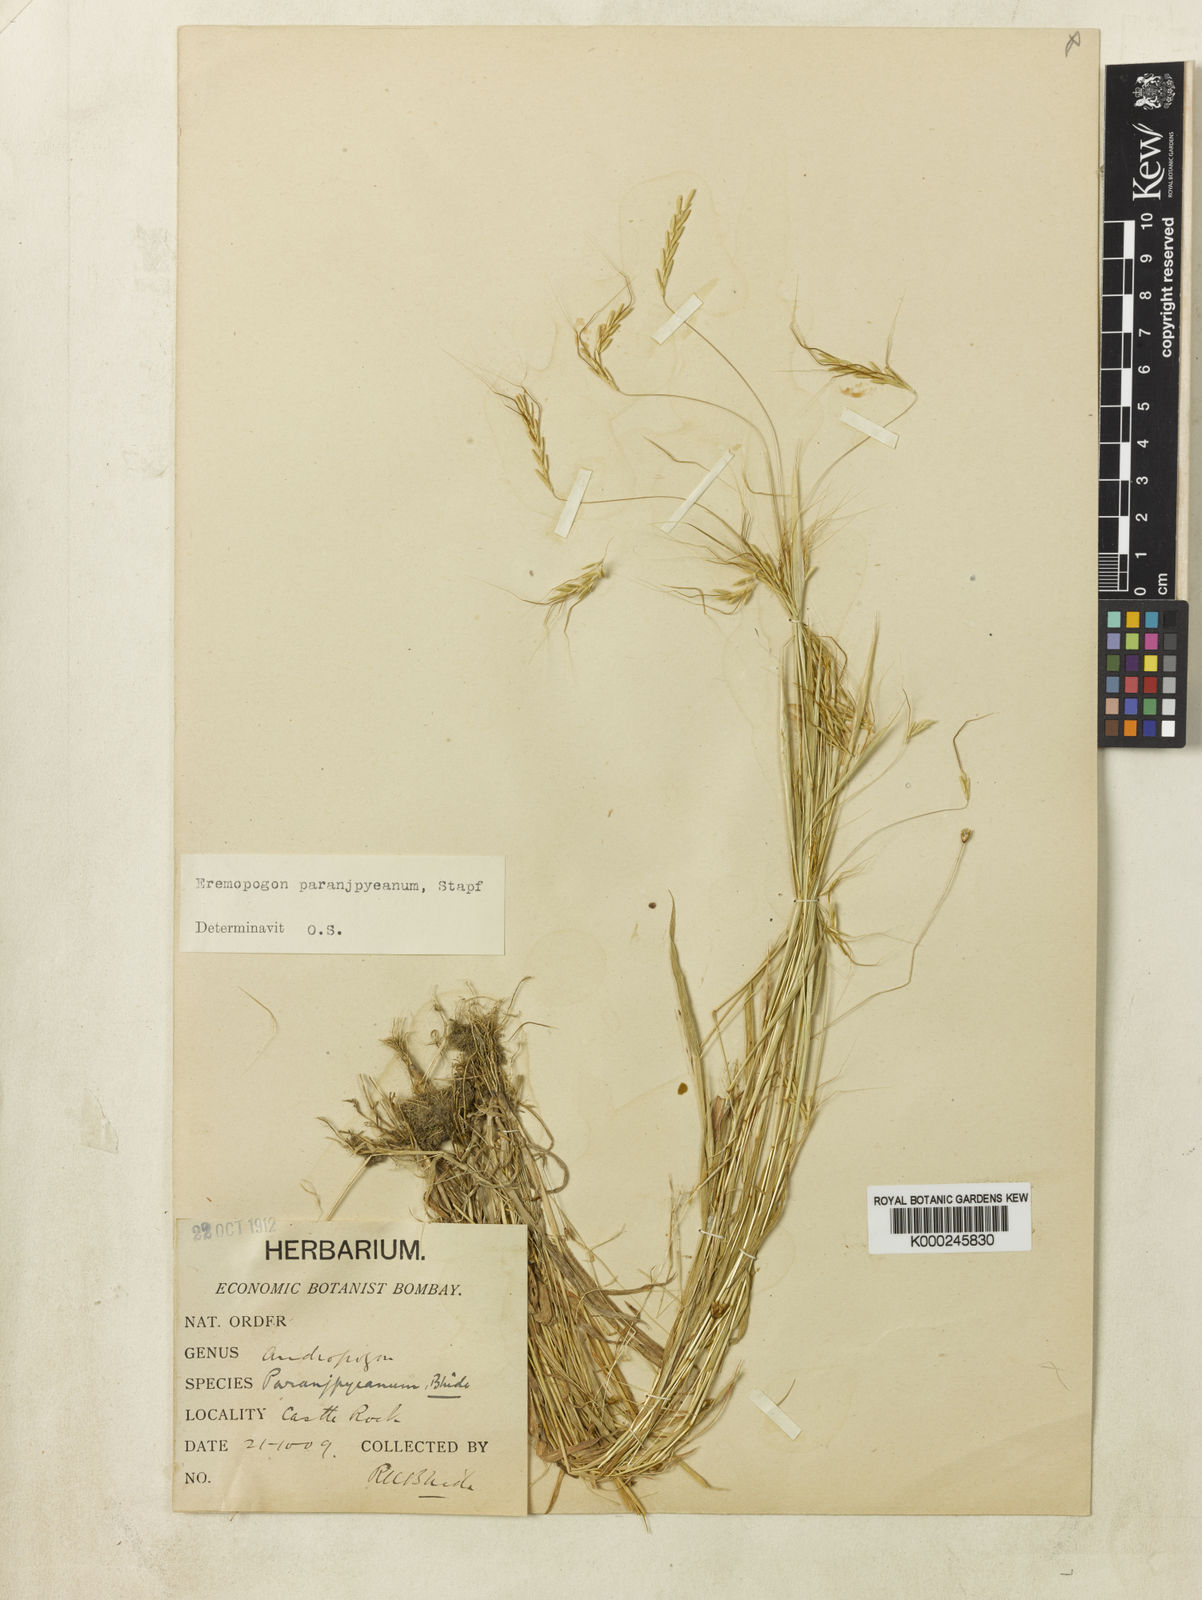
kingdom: Plantae
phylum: Tracheophyta
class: Liliopsida
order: Poales
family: Poaceae
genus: Dichanthium
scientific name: Dichanthium paranjpyeanum
